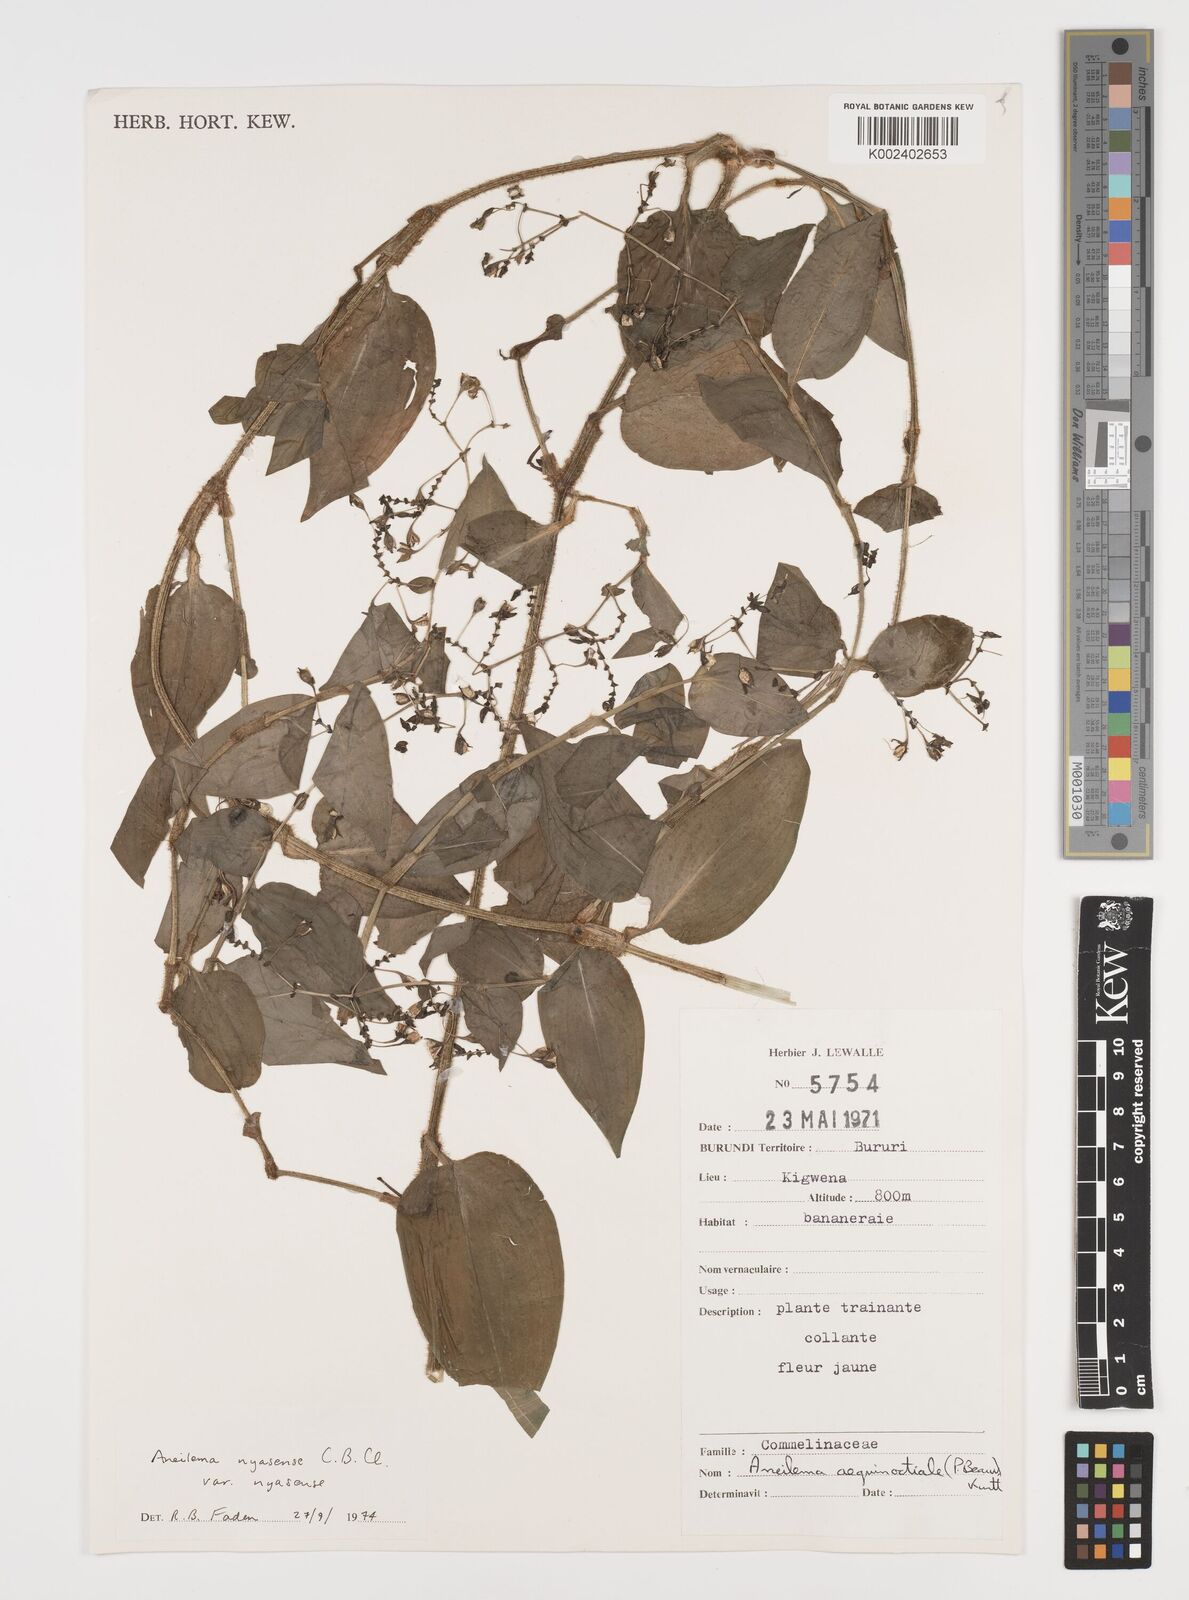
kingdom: Plantae
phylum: Tracheophyta
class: Liliopsida
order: Commelinales
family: Commelinaceae
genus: Aneilema
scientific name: Aneilema nyasense
